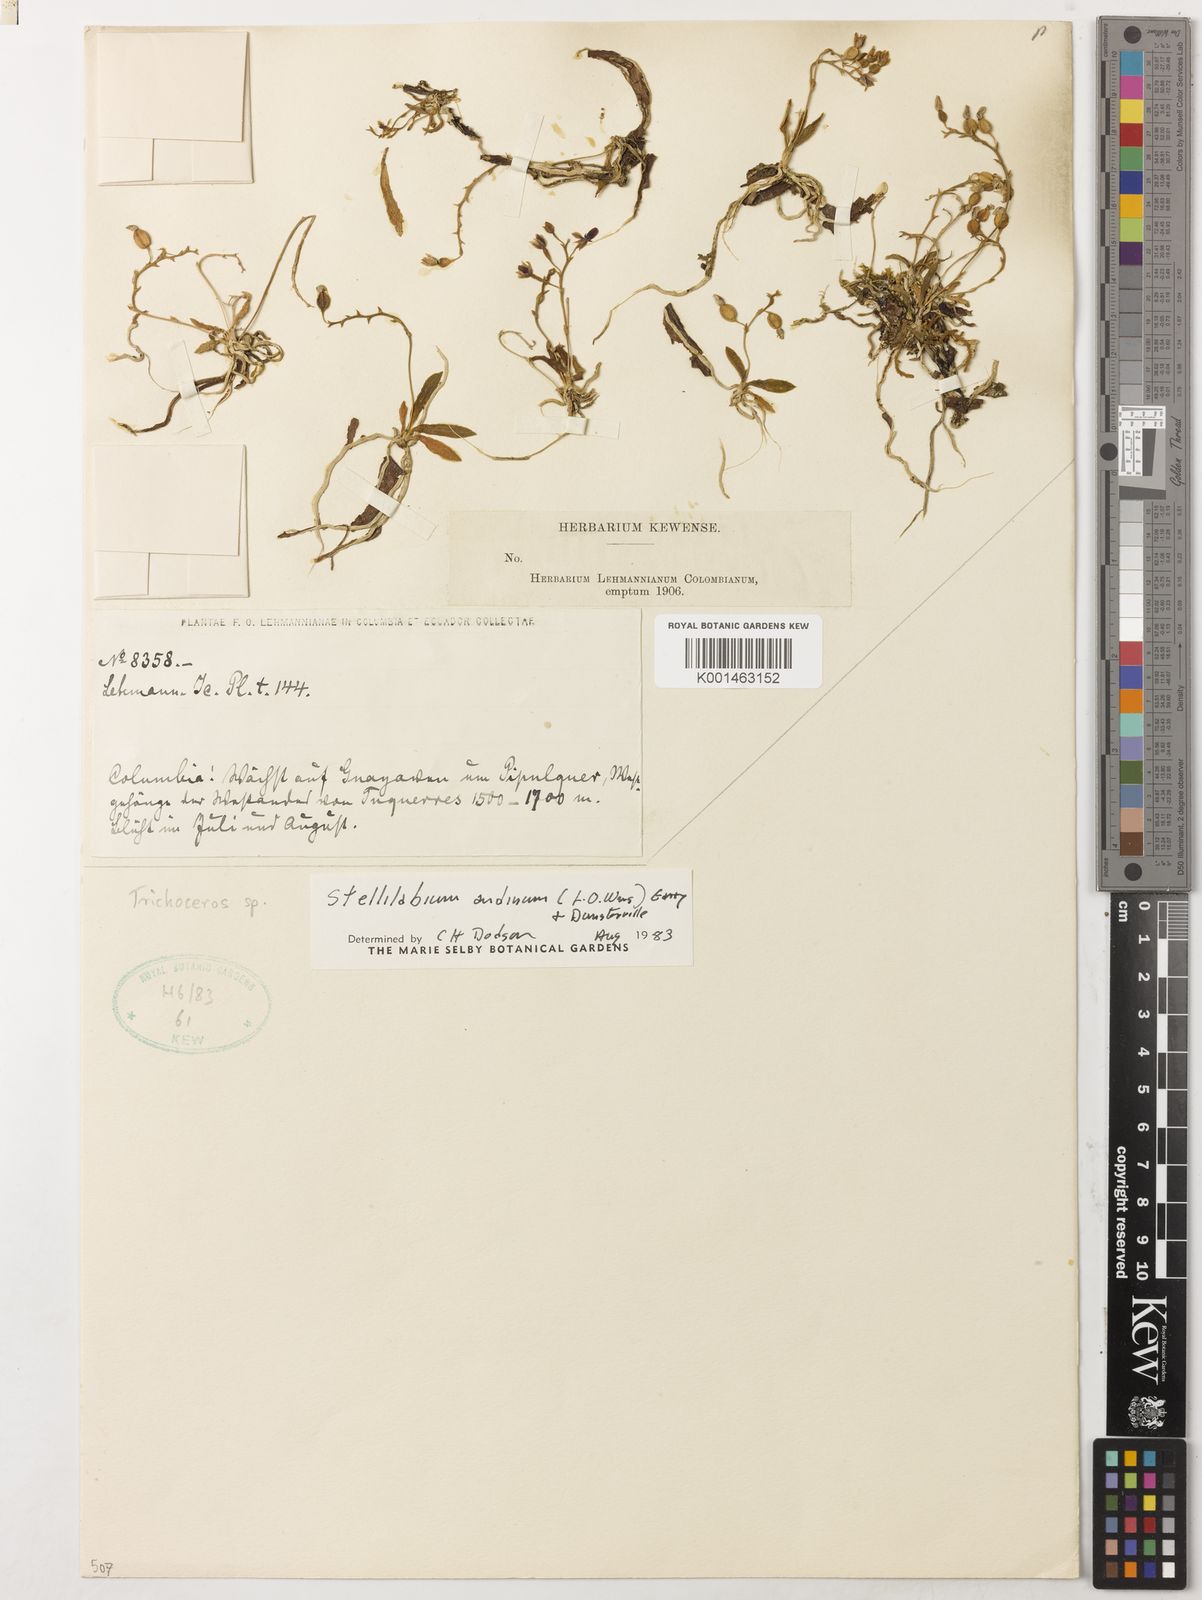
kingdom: Plantae
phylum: Tracheophyta
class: Liliopsida
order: Asparagales
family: Orchidaceae
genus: Telipogon
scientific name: Telipogon antioquianus
